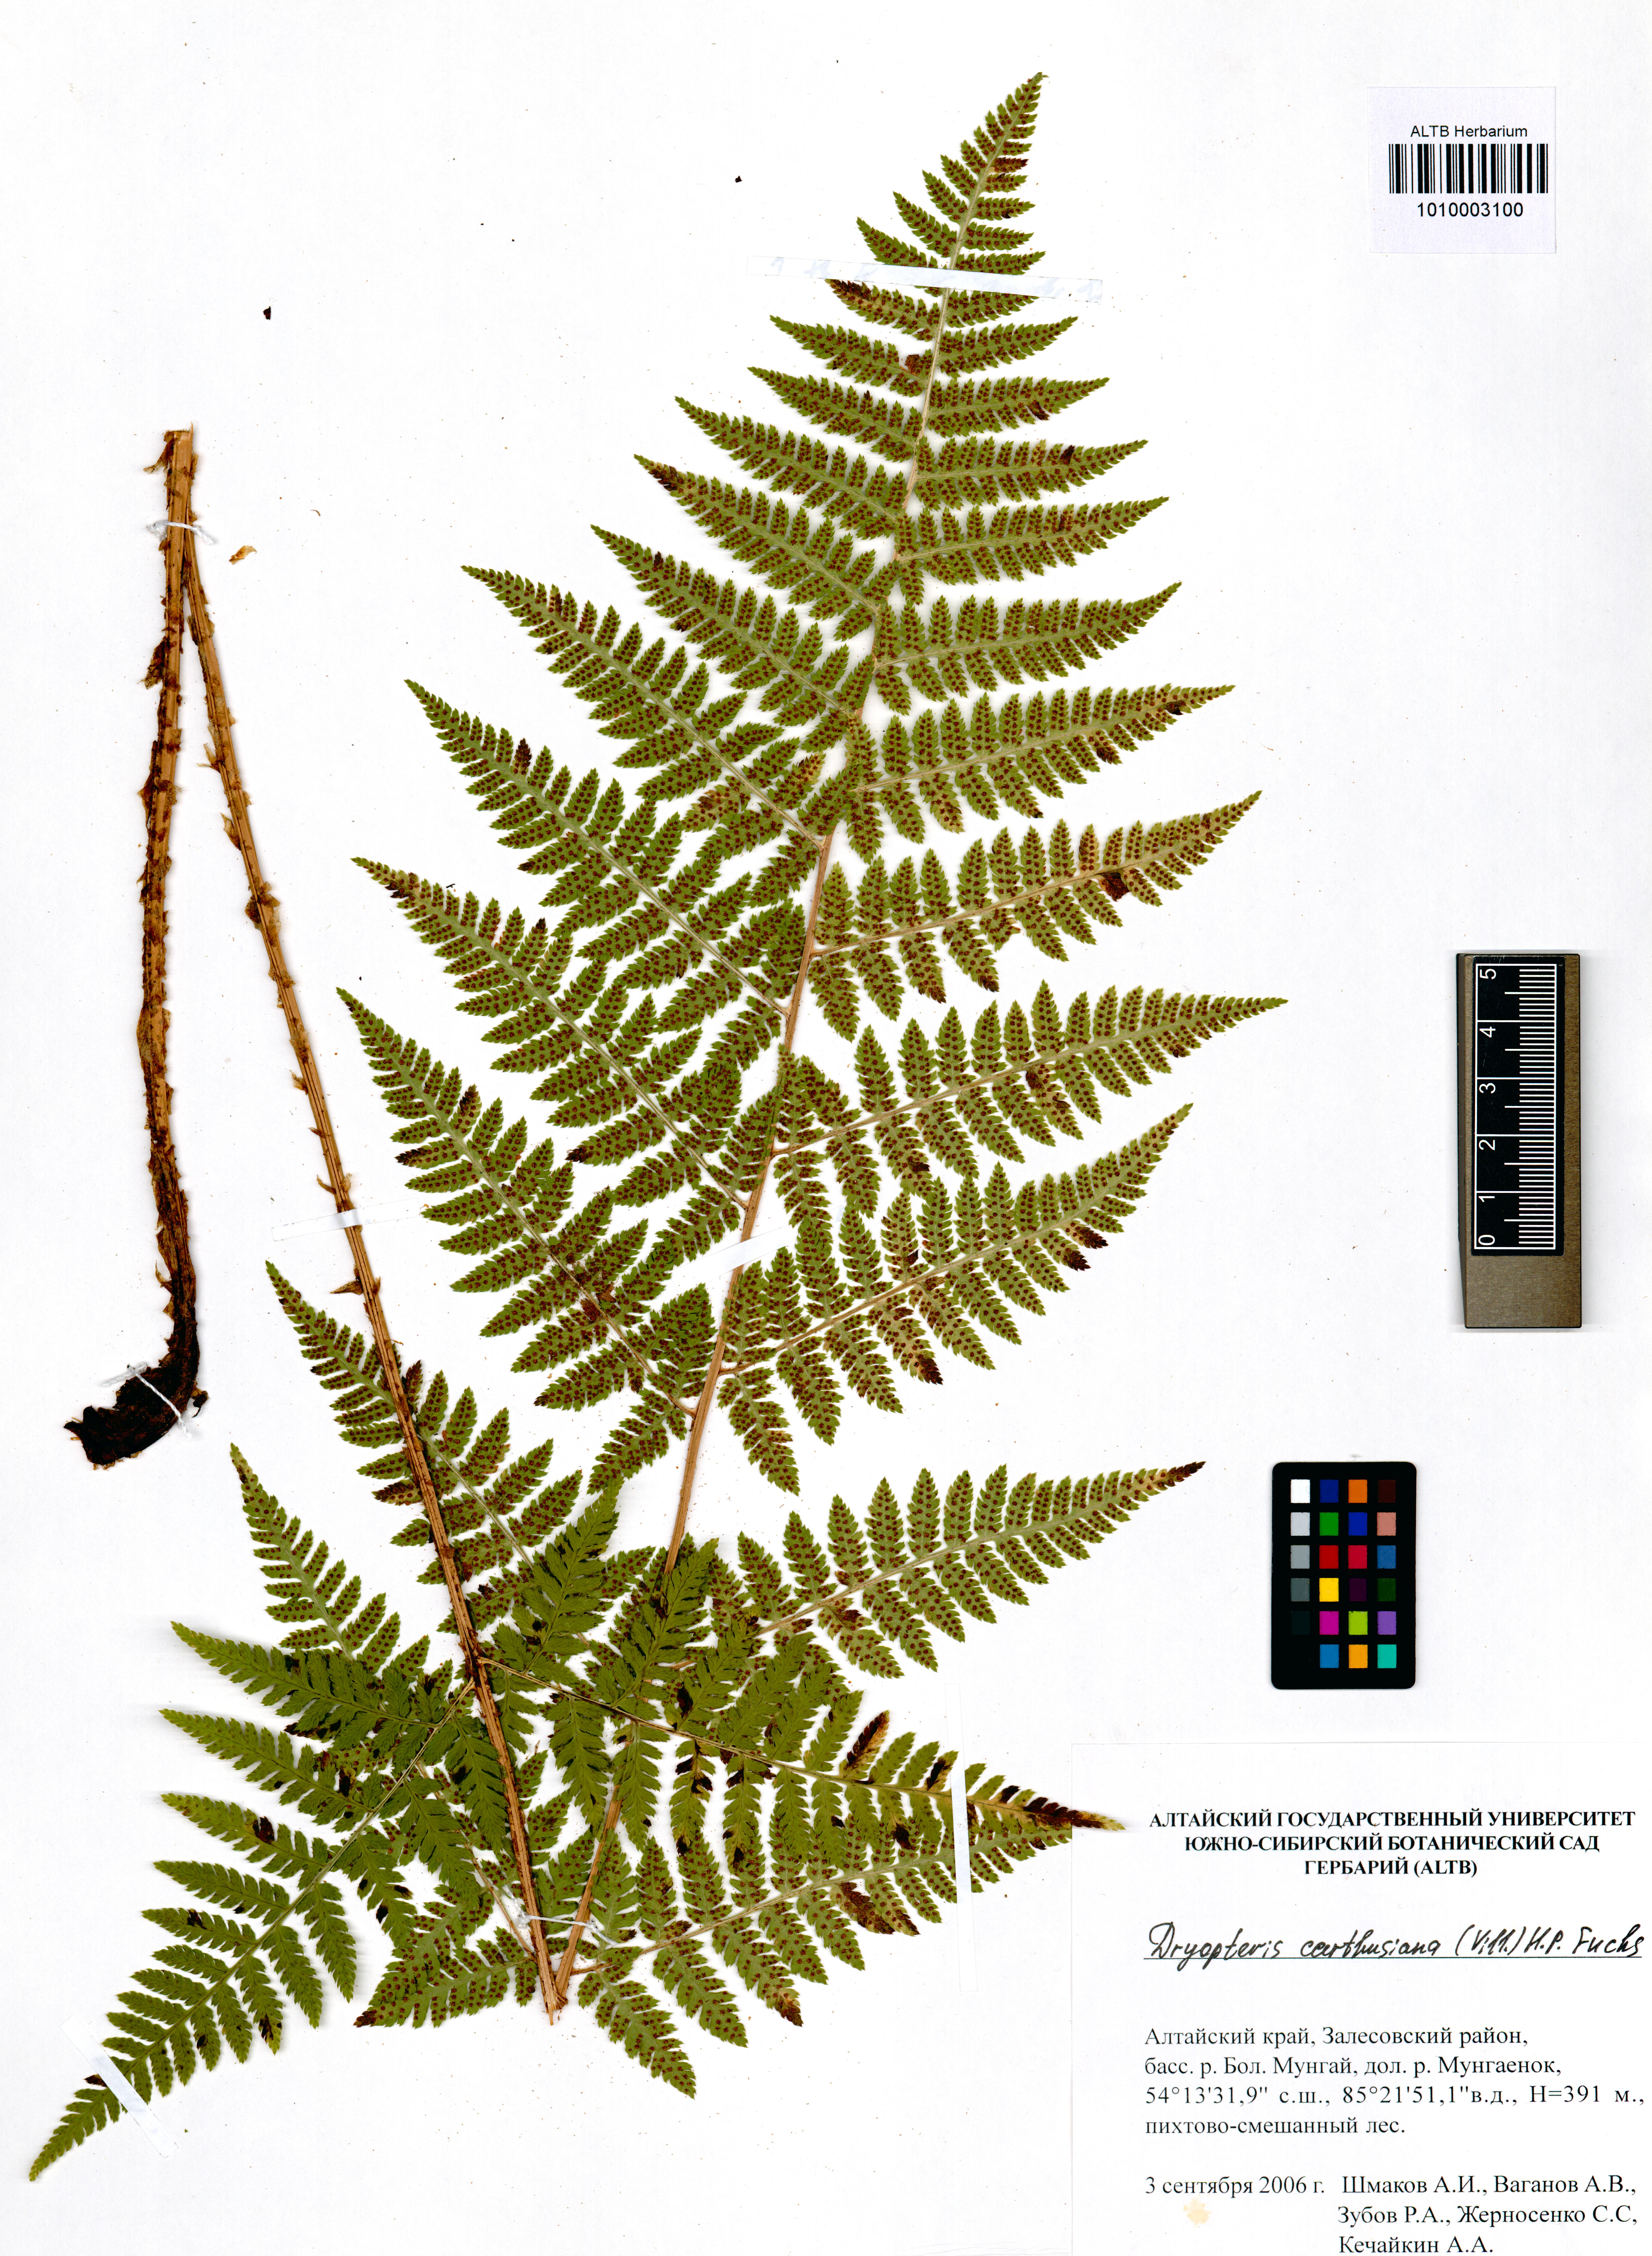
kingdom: Plantae
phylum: Tracheophyta
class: Polypodiopsida
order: Polypodiales
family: Dryopteridaceae
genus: Dryopteris
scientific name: Dryopteris carthusiana
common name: Narrow buckler-fern
